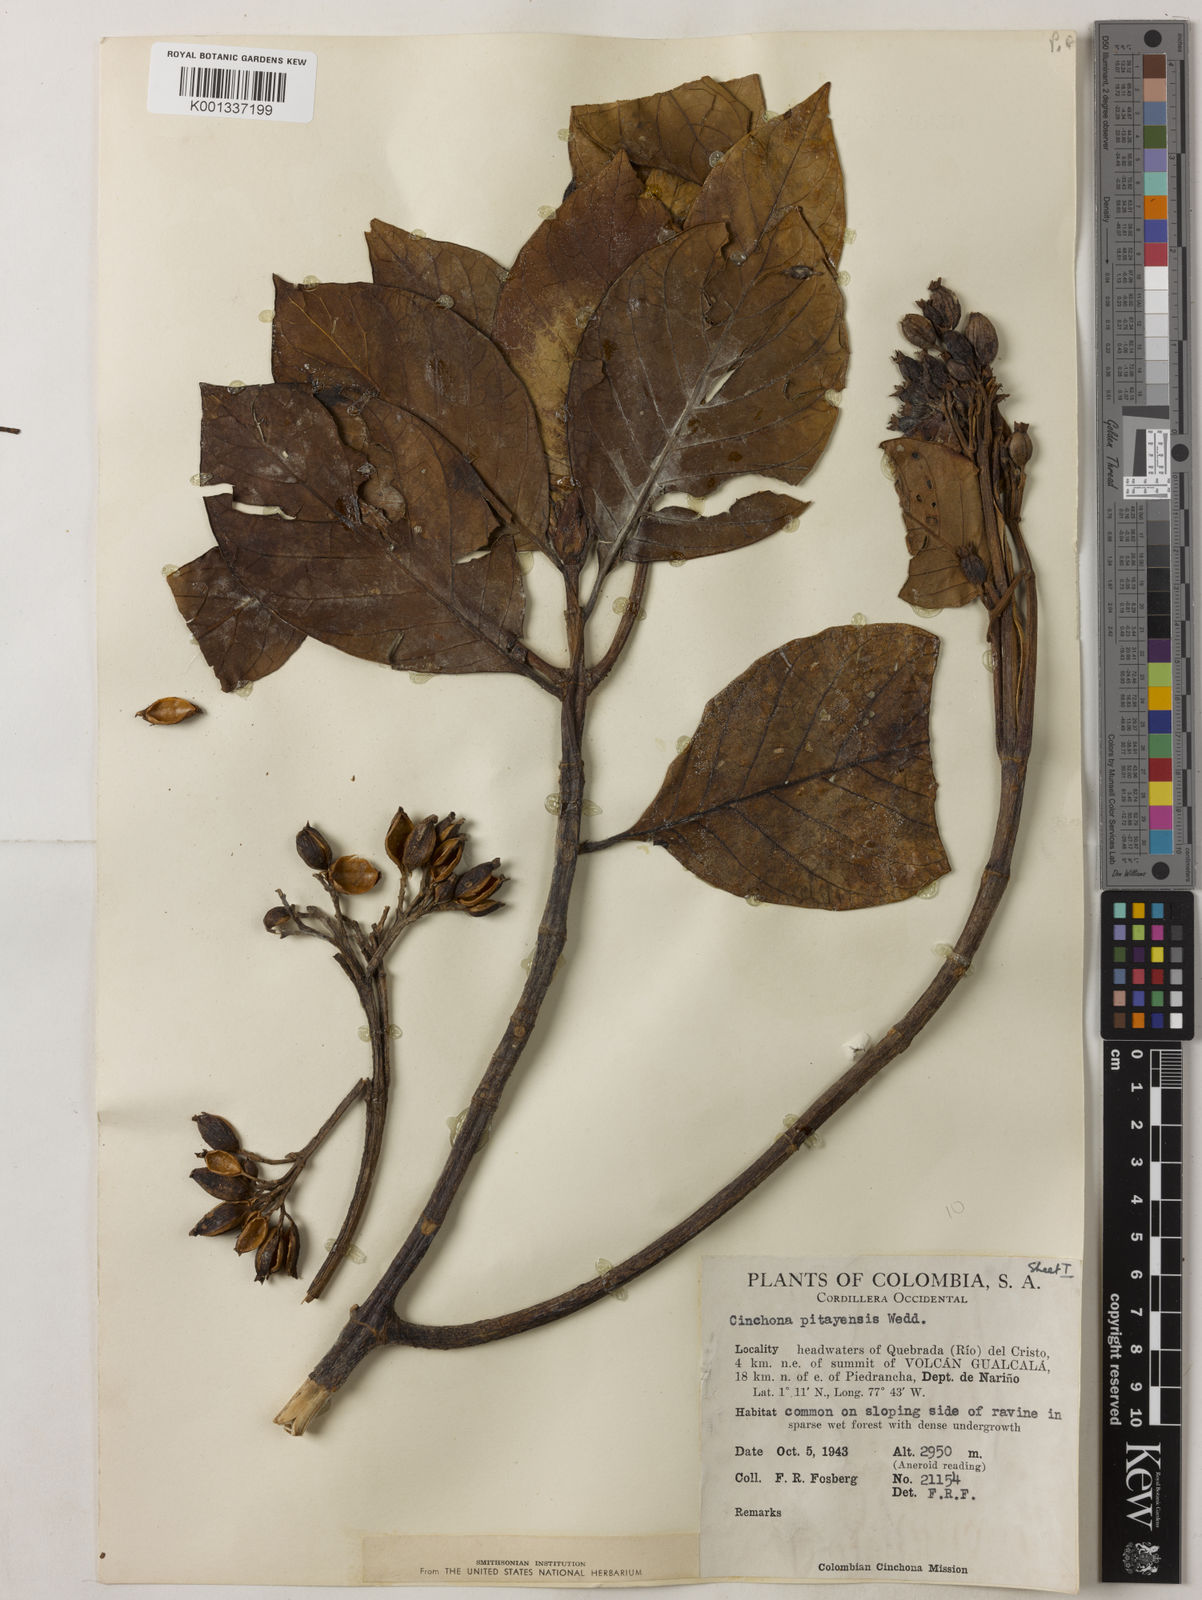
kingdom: Plantae
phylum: Tracheophyta
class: Magnoliopsida
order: Gentianales
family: Rubiaceae
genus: Cinchona
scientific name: Cinchona pitayensis
